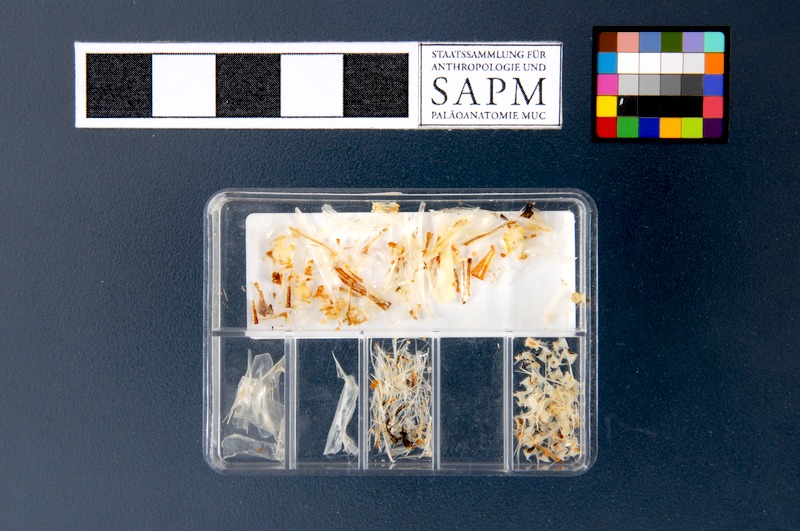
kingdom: Animalia
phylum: Chordata
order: Clupeiformes
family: Engraulidae
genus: Engraulis
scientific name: Engraulis encrasicolus
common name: European anchovy
